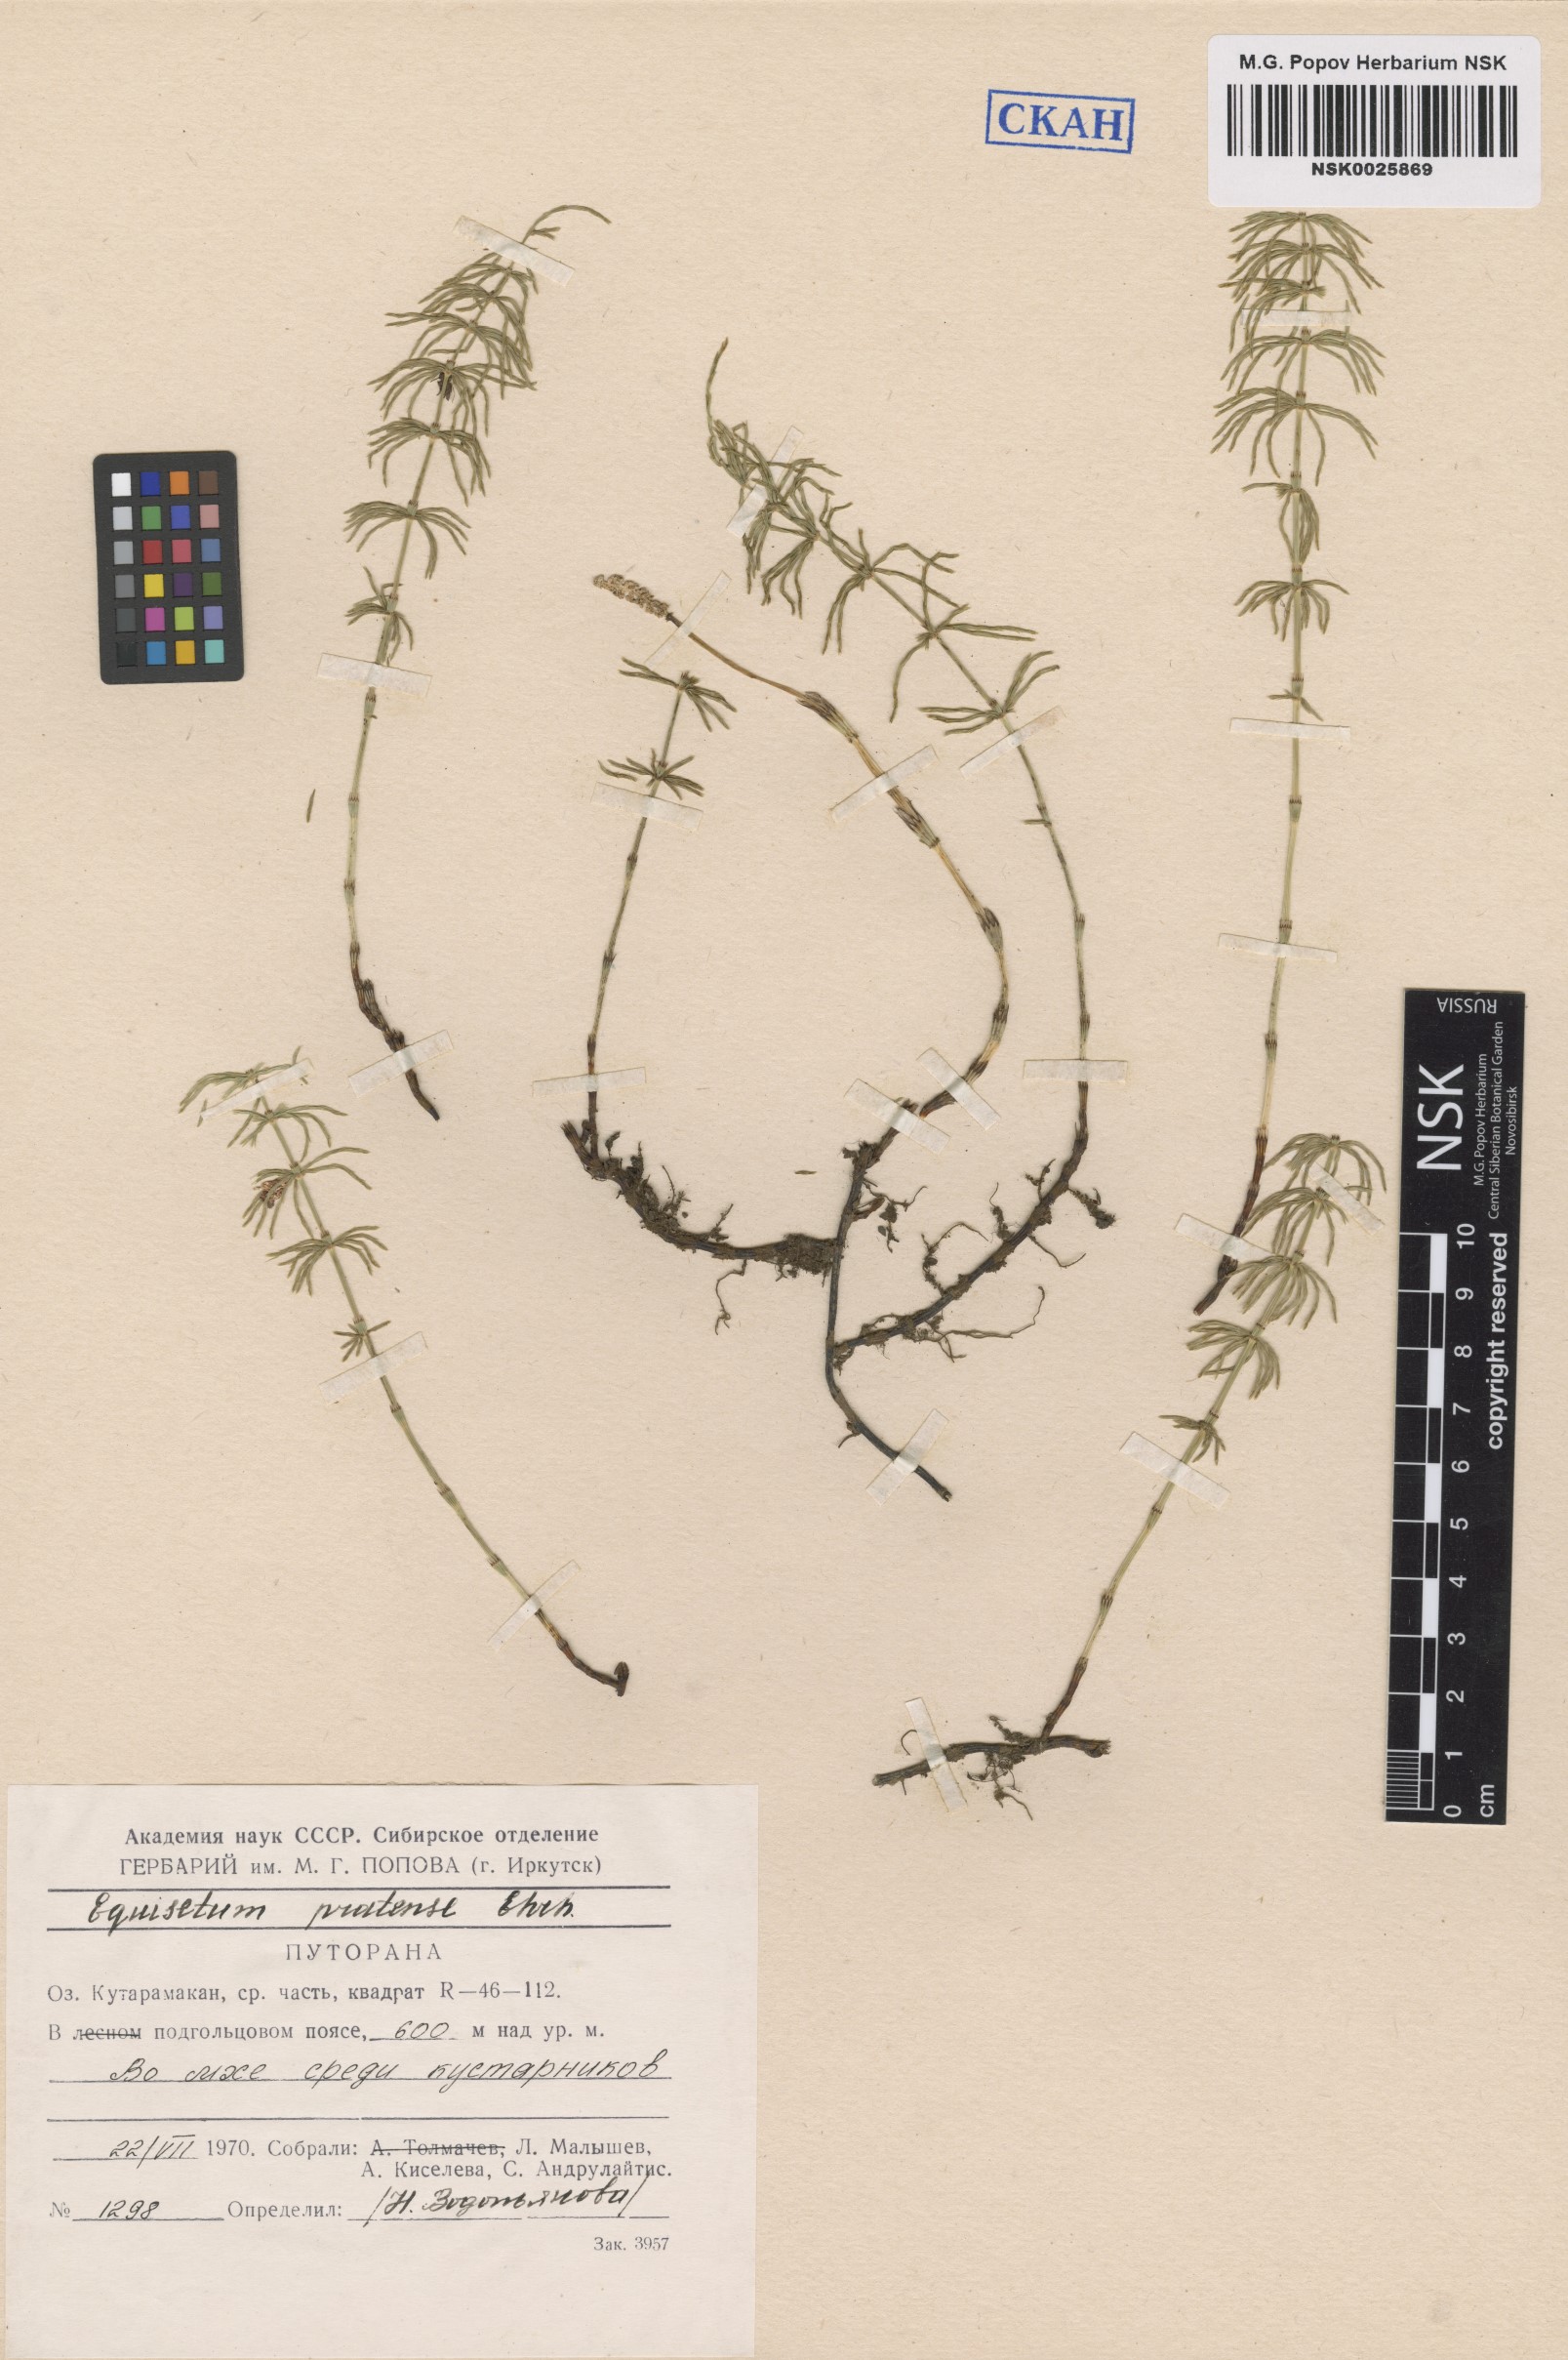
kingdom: Plantae
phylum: Tracheophyta
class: Polypodiopsida
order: Equisetales
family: Equisetaceae
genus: Equisetum
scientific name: Equisetum pratense
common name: Meadow horsetail
